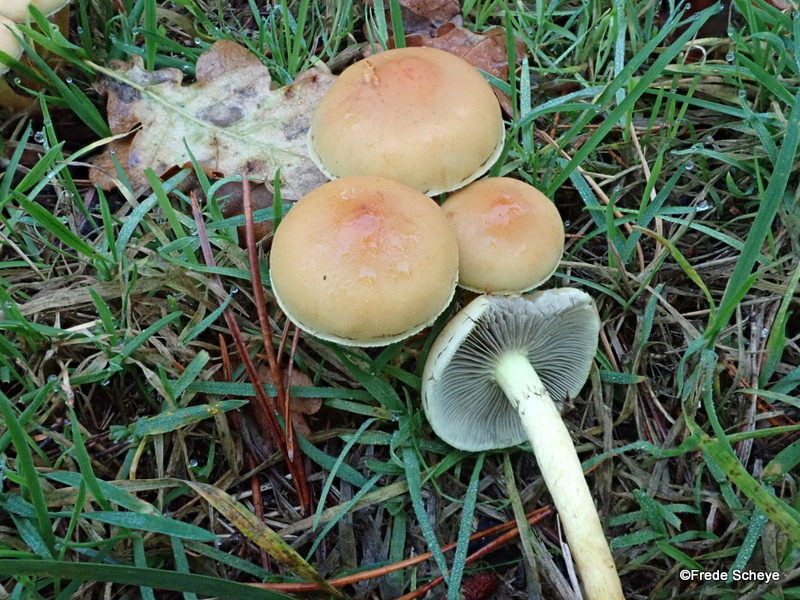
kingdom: Fungi
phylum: Basidiomycota
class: Agaricomycetes
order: Agaricales
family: Strophariaceae
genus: Hypholoma
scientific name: Hypholoma lateritium
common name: teglrød svovlhat
